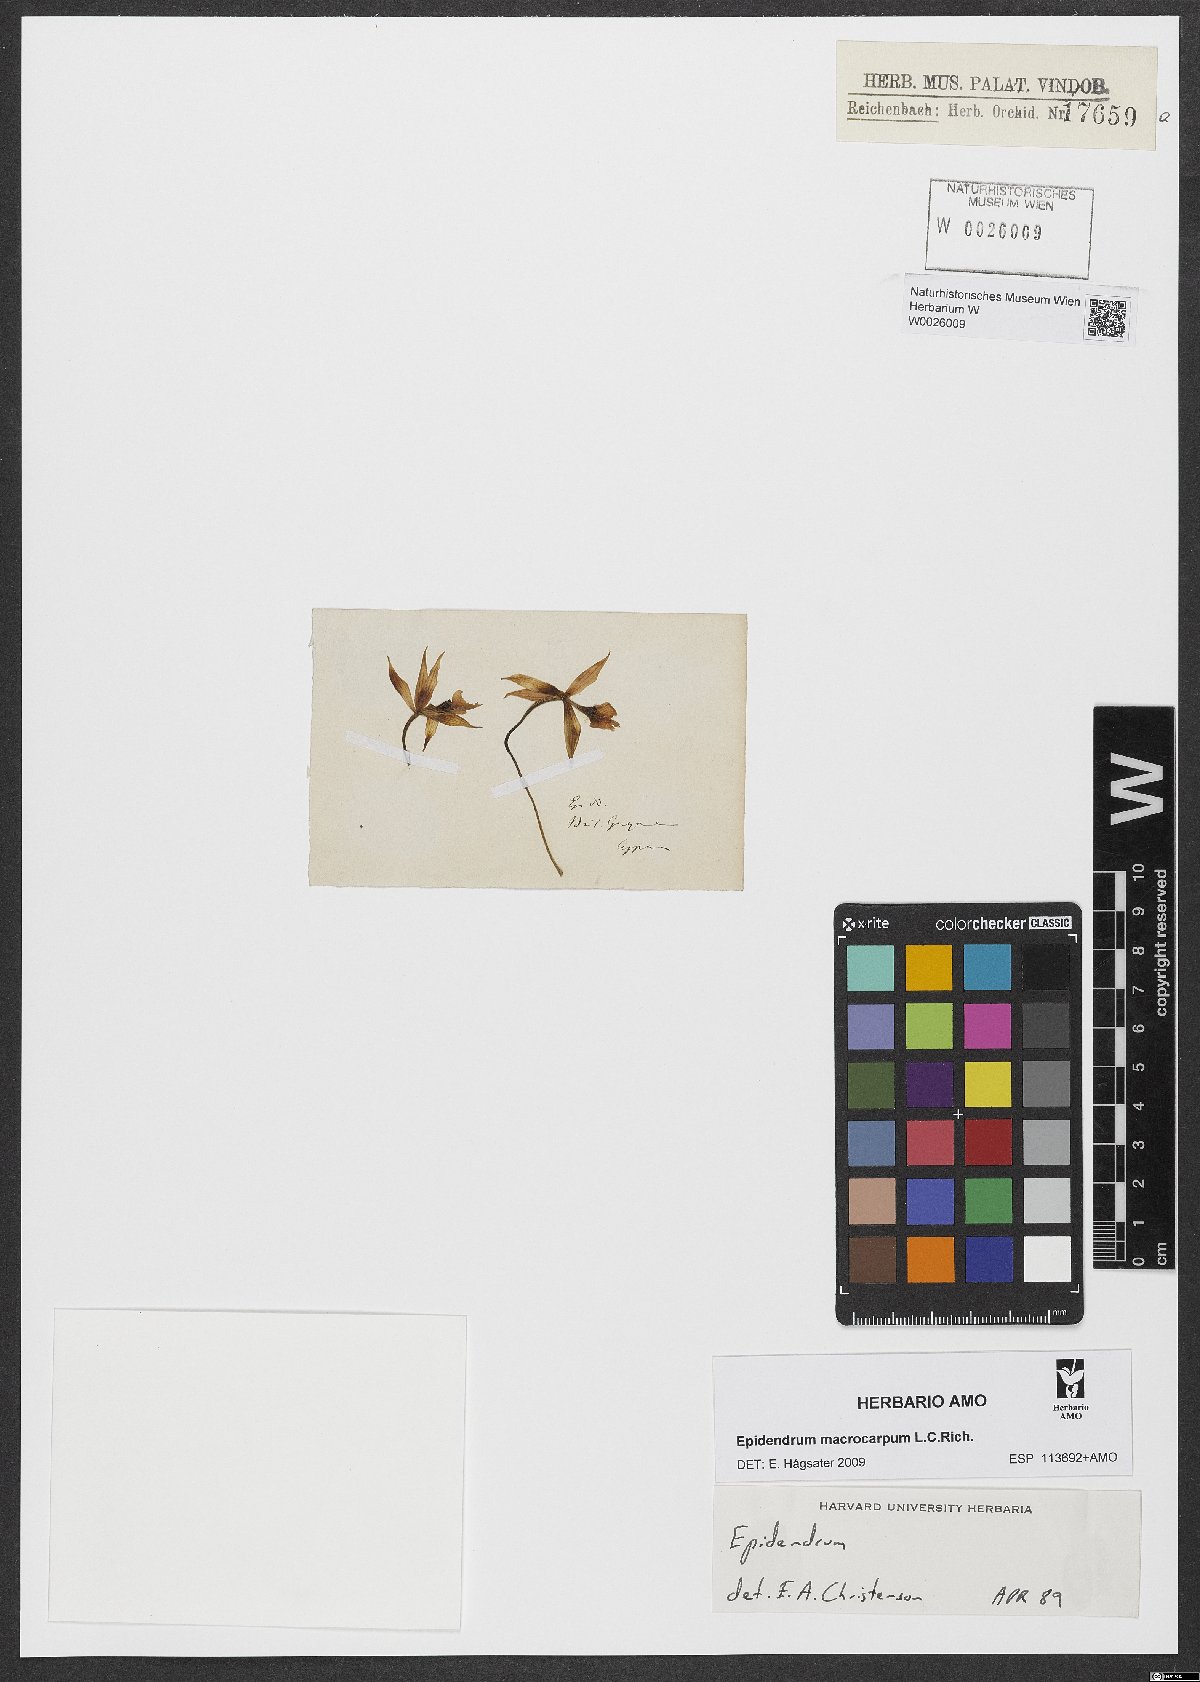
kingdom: Plantae
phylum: Tracheophyta
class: Liliopsida
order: Asparagales
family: Orchidaceae
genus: Epidendrum
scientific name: Epidendrum
